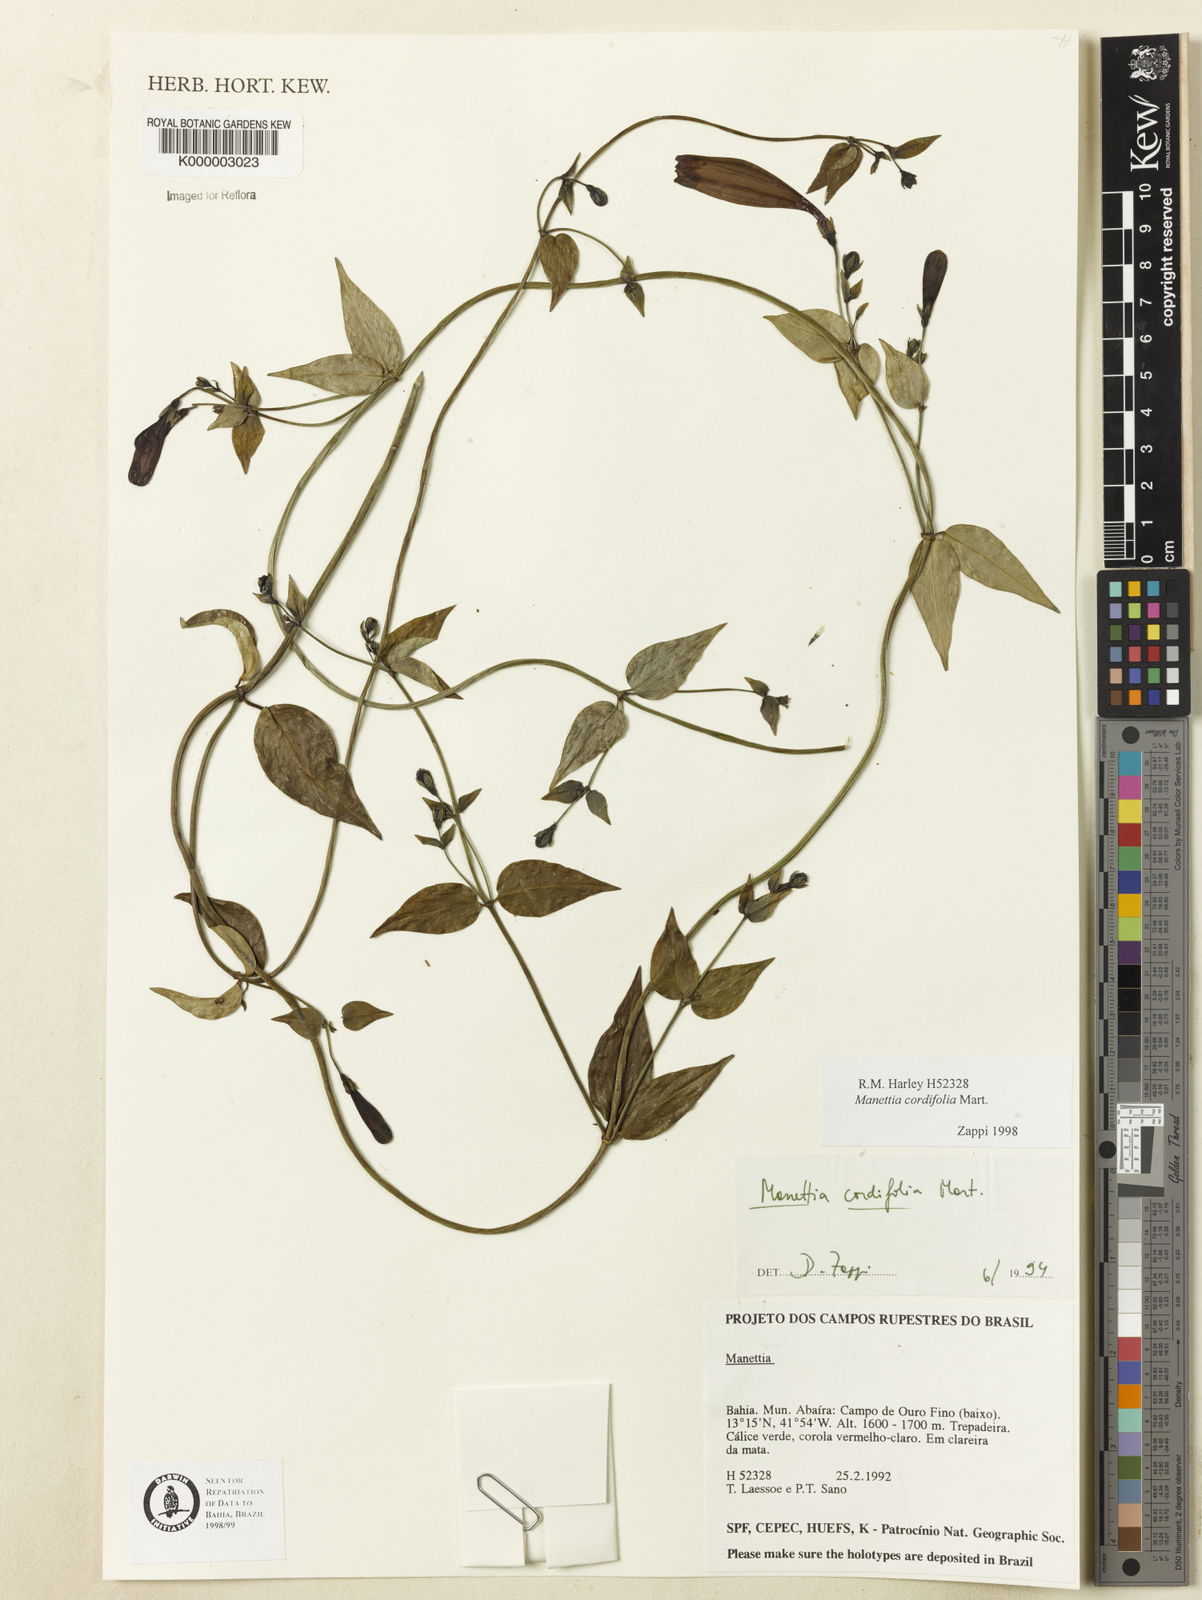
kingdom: Plantae
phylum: Tracheophyta
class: Magnoliopsida
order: Gentianales
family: Rubiaceae
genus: Manettia
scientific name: Manettia cordifolia
